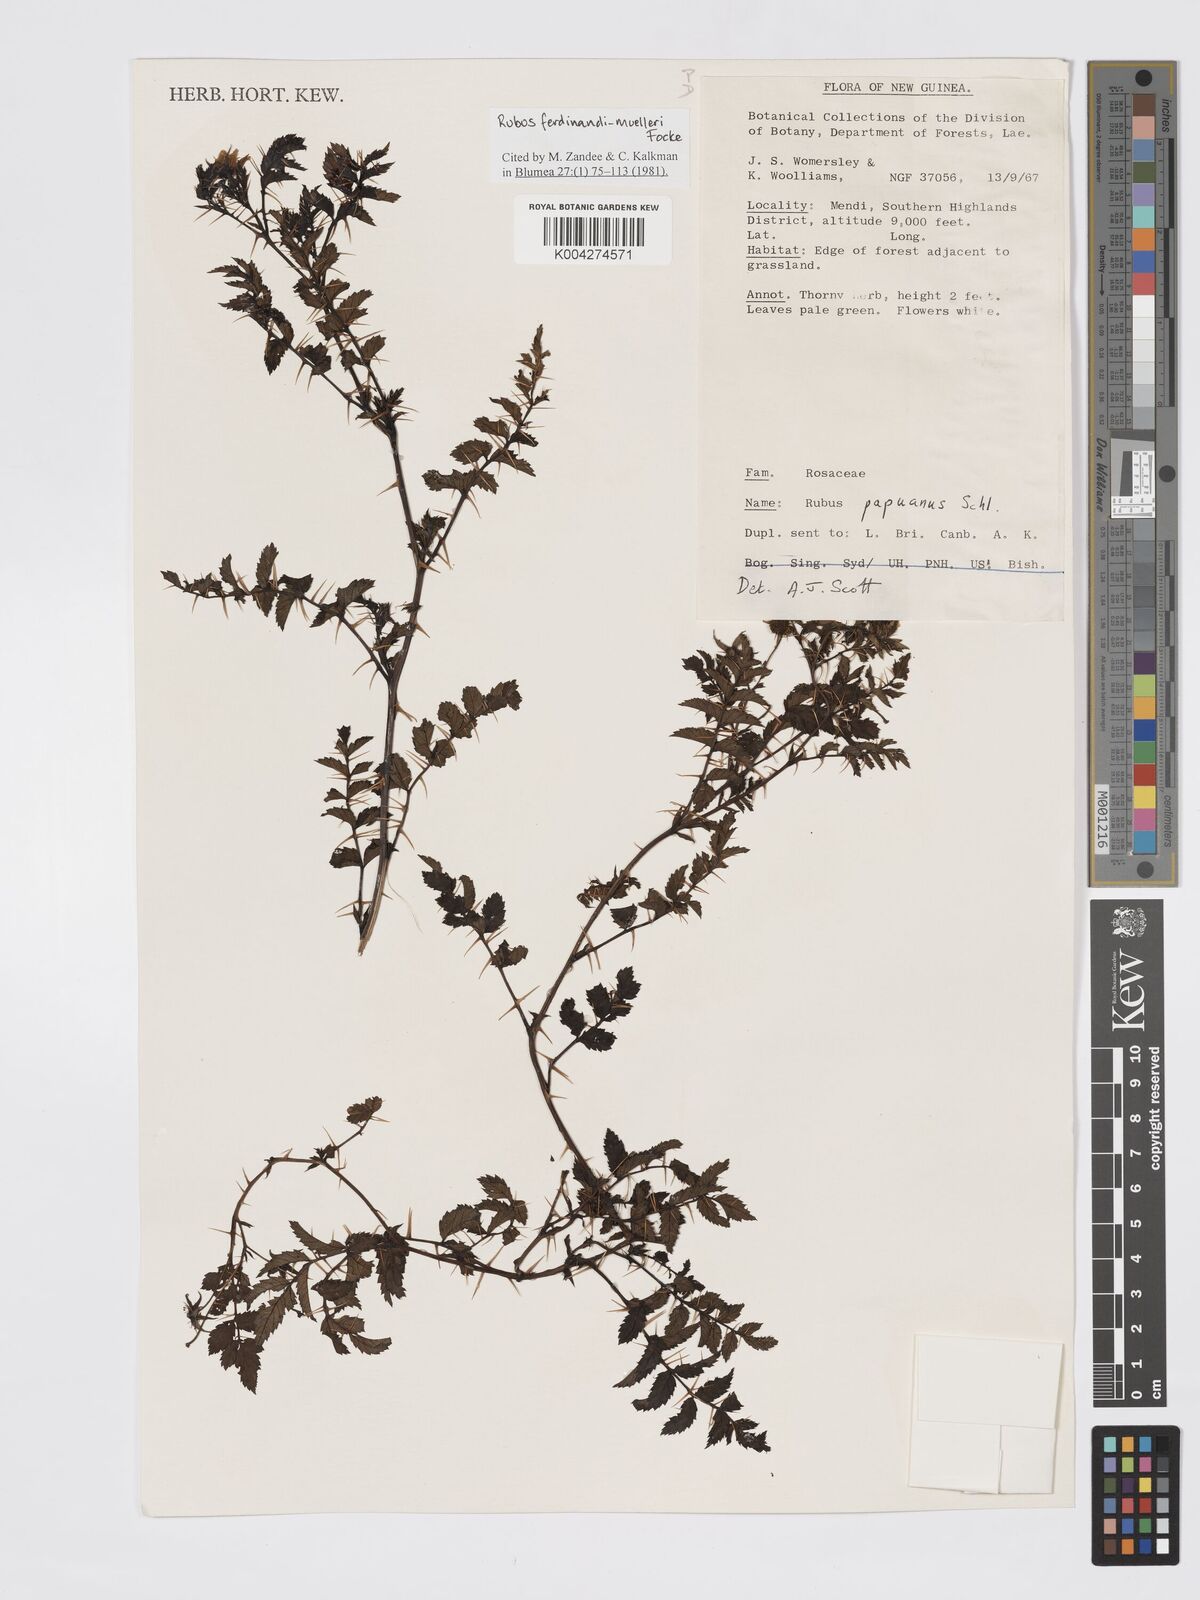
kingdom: Plantae
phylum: Tracheophyta
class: Magnoliopsida
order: Rosales
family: Rosaceae
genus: Rubus
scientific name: Rubus ferdinandimuelleri
